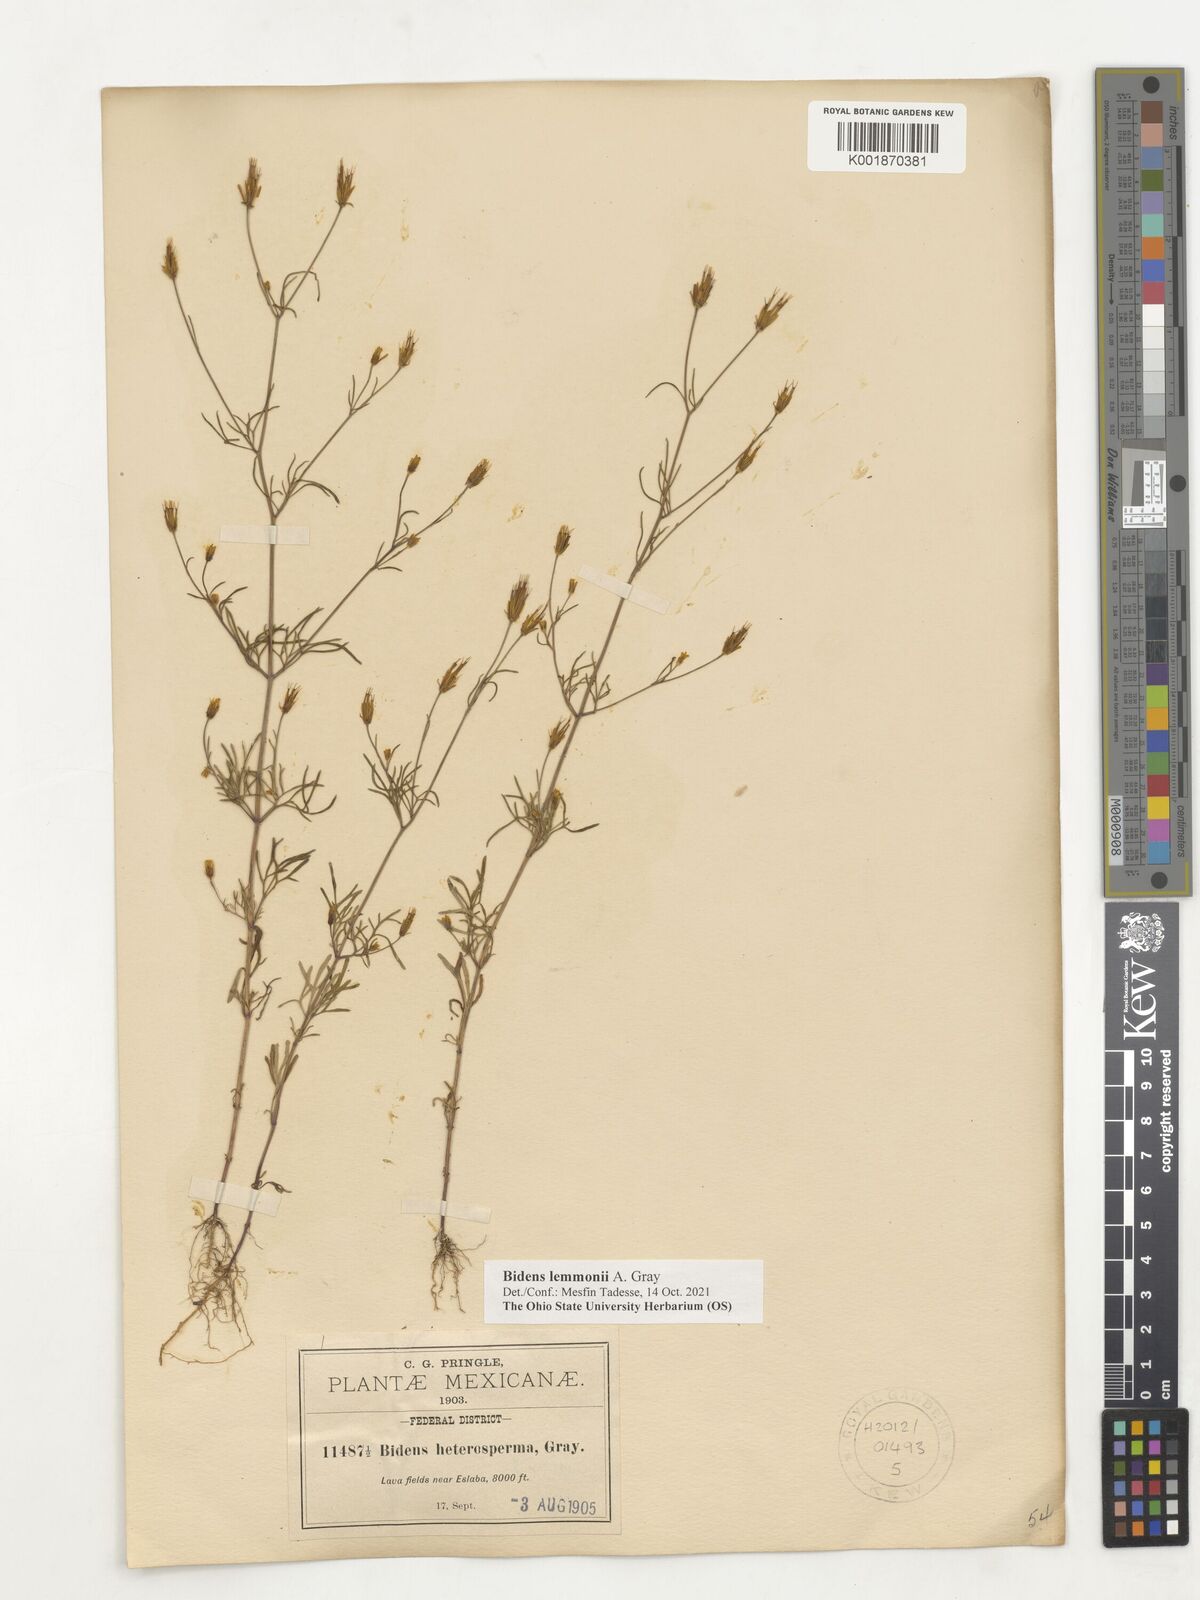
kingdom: Plantae
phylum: Tracheophyta
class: Magnoliopsida
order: Asterales
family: Asteraceae
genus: Bidens
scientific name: Bidens lemmonii
